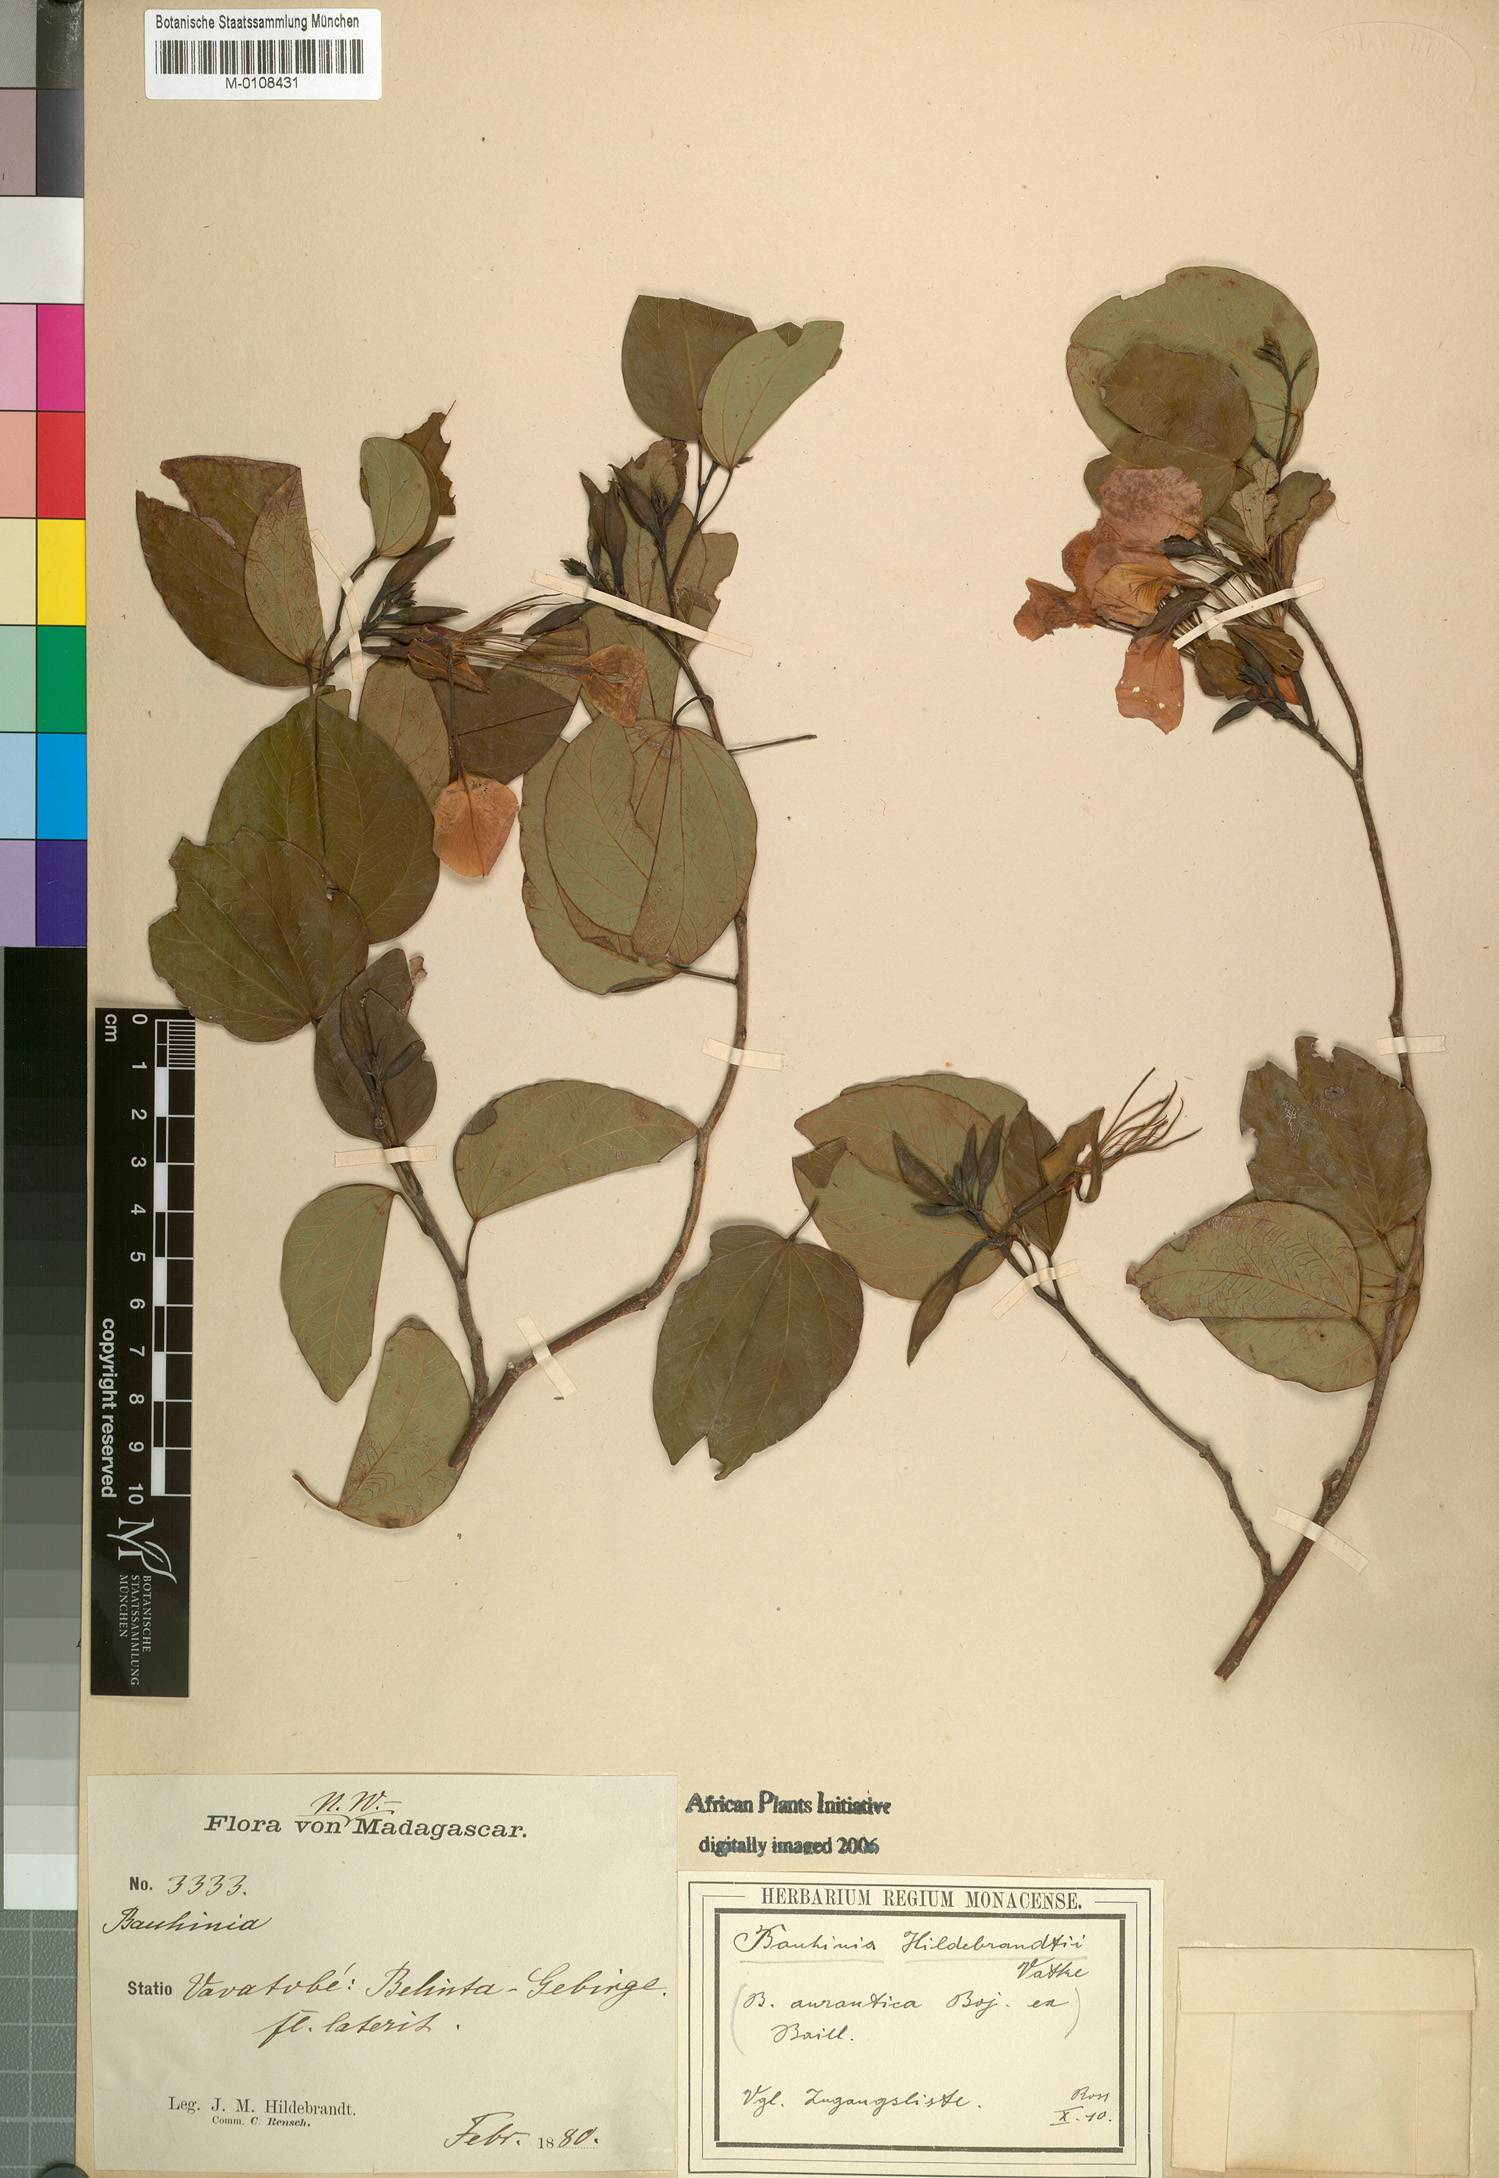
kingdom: Plantae
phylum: Tracheophyta
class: Magnoliopsida
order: Fabales
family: Fabaceae
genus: Bauhinia
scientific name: Bauhinia hildebrandtii
